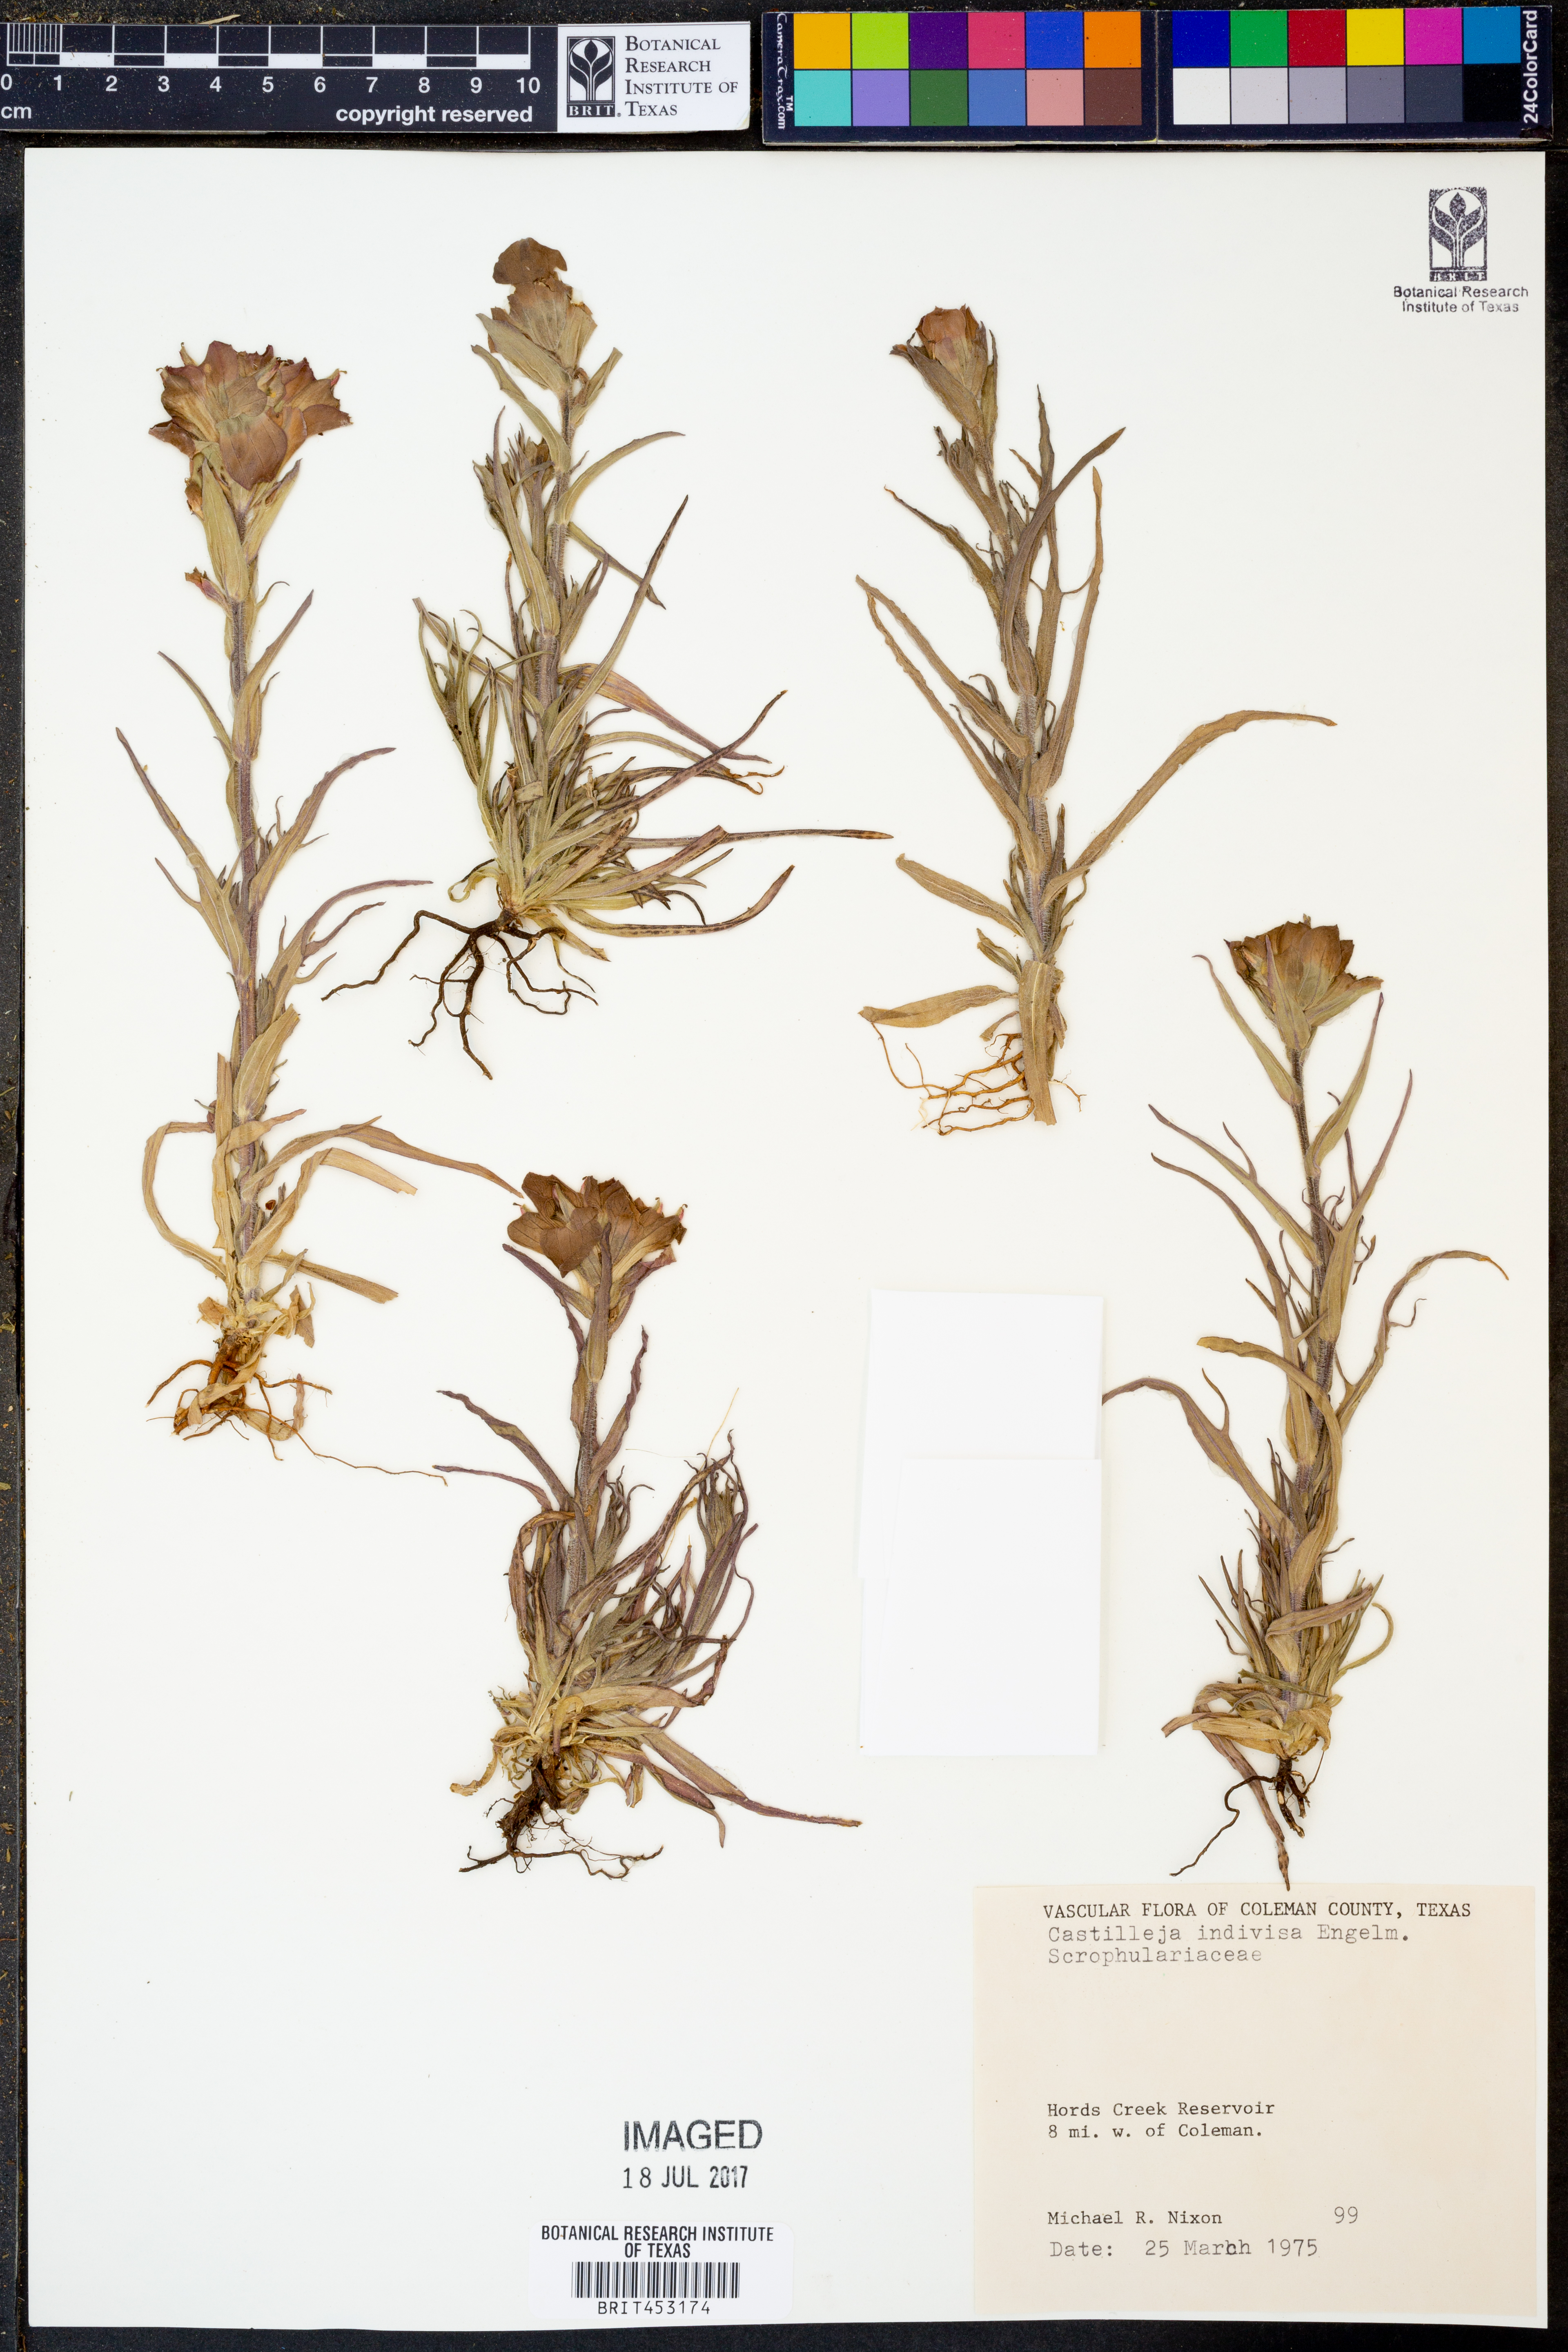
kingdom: Plantae
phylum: Tracheophyta
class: Magnoliopsida
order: Lamiales
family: Orobanchaceae
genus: Castilleja
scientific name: Castilleja indivisa
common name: Texas paintbrush
